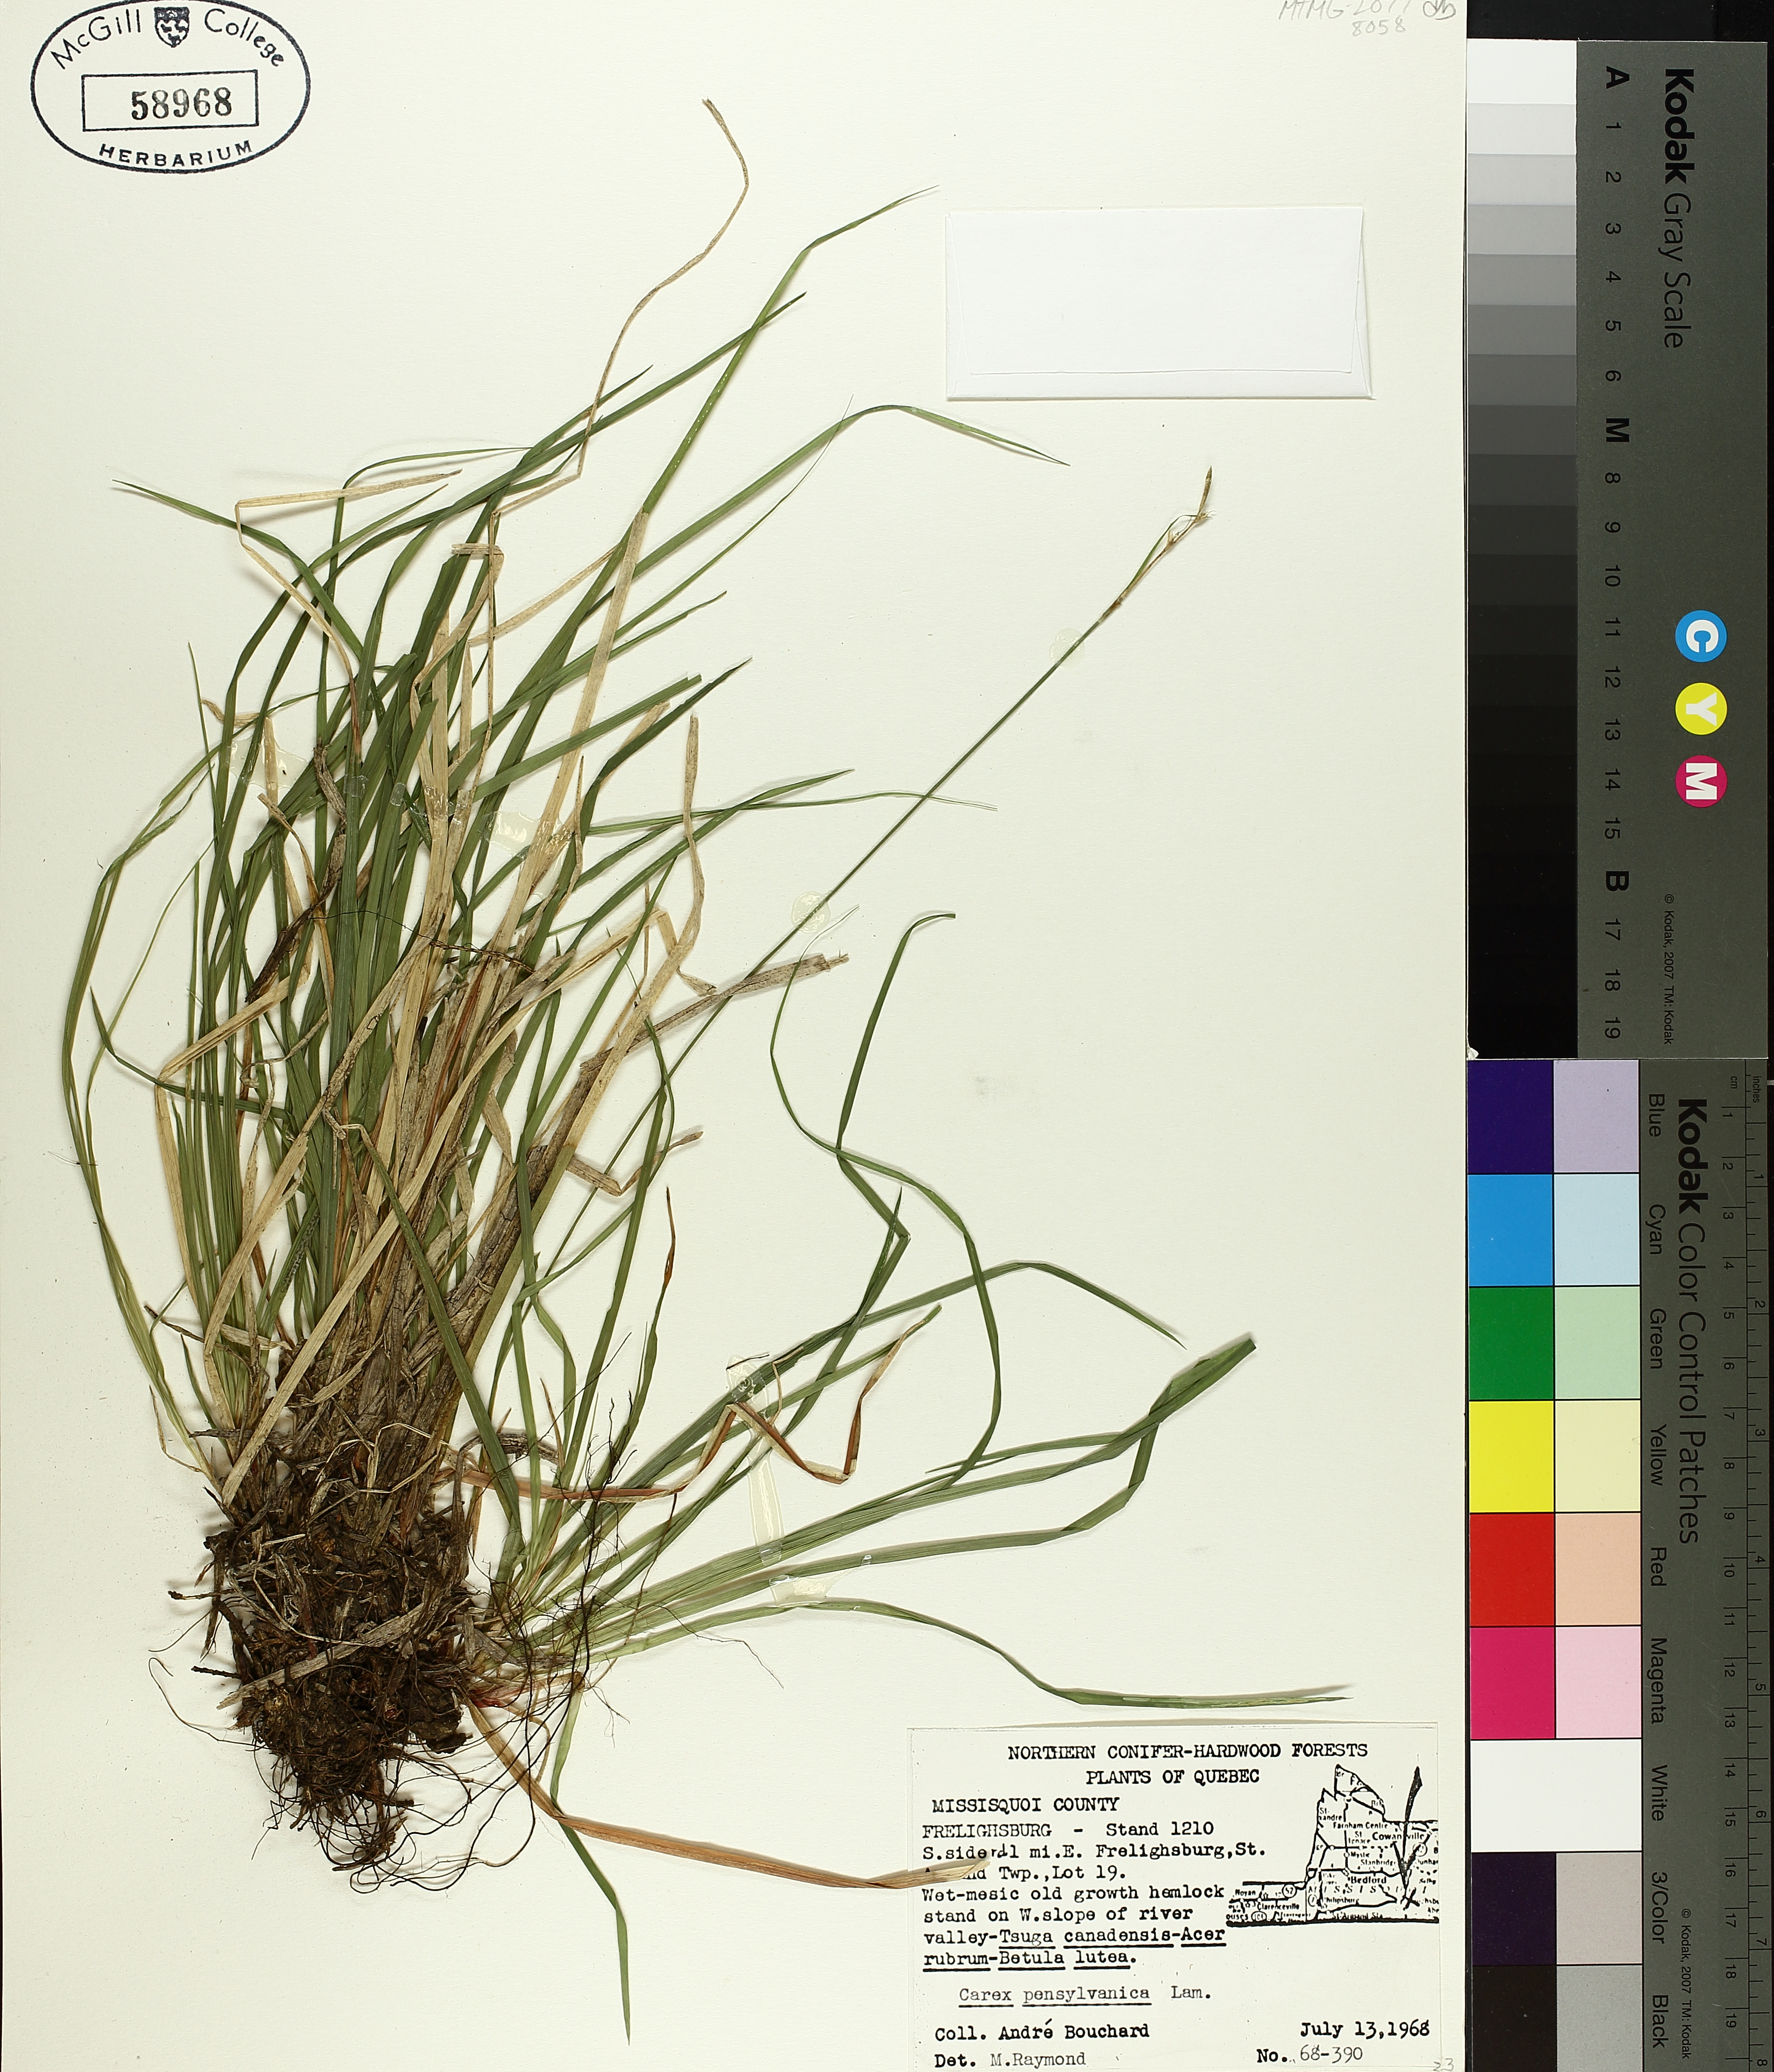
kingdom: Plantae
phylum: Tracheophyta
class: Liliopsida
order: Poales
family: Cyperaceae
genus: Carex
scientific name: Carex pensylvanica
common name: Common oak sedge
